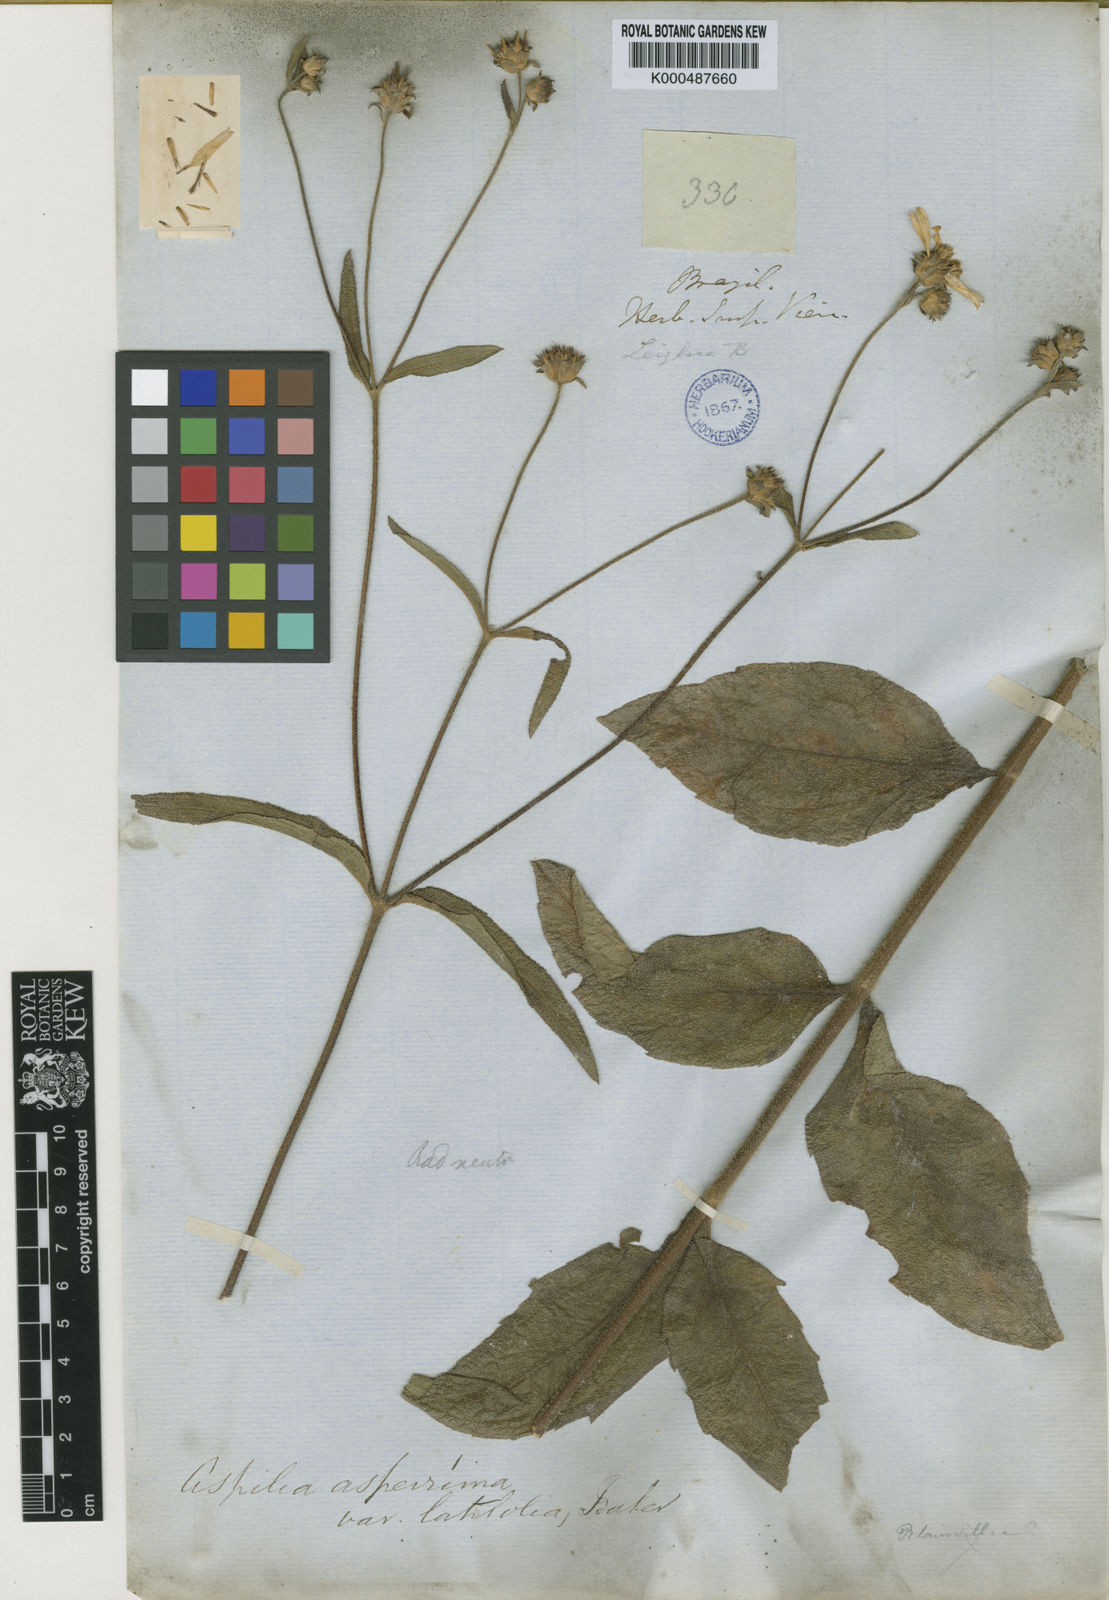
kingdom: Plantae
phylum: Tracheophyta
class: Magnoliopsida
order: Asterales
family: Asteraceae
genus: Wedelia
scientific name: Wedelia attenuata
